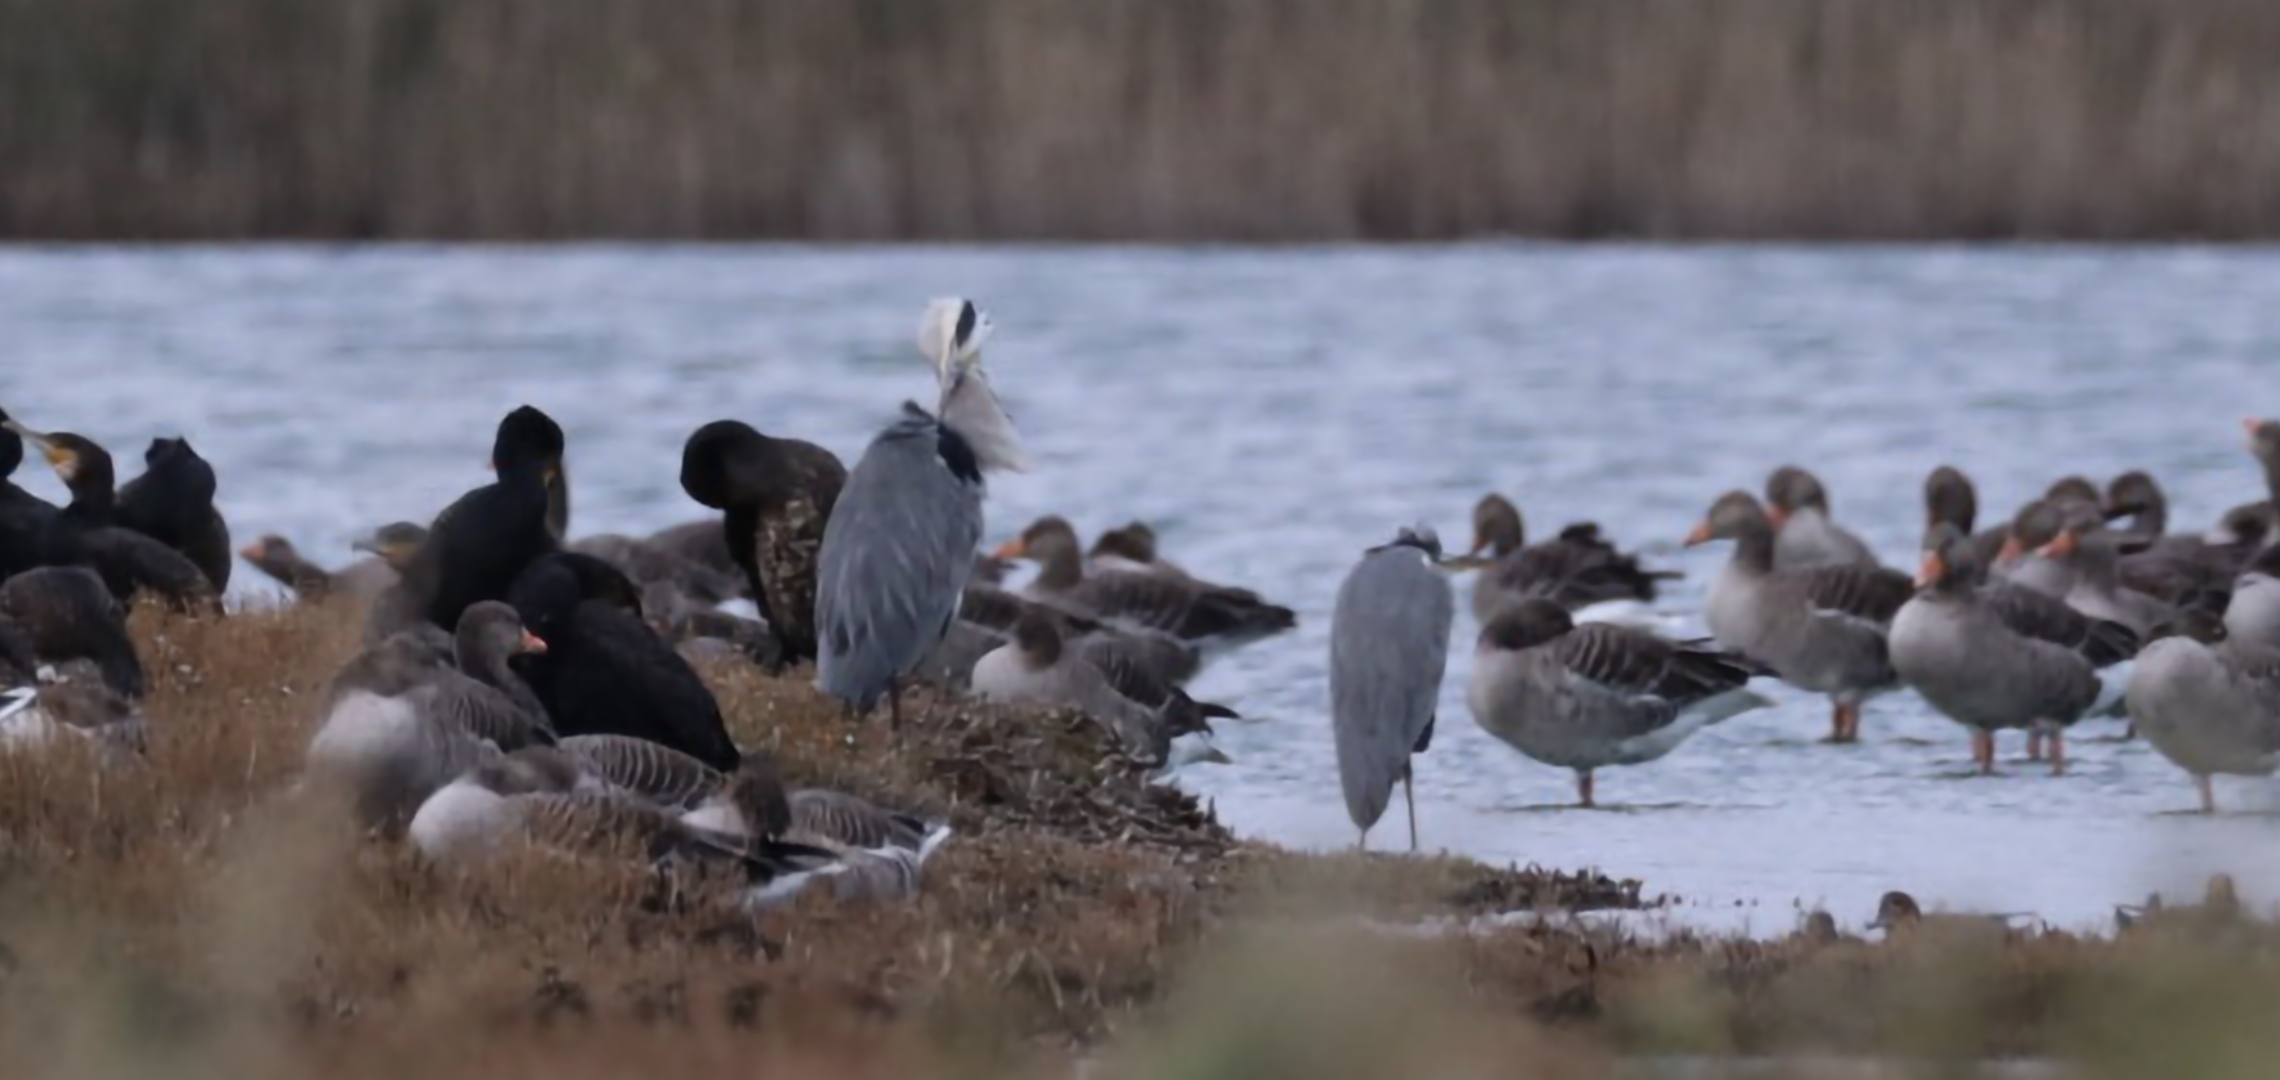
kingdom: Animalia
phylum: Chordata
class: Aves
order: Pelecaniformes
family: Ardeidae
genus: Ardea
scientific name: Ardea cinerea
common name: Fiskehejre
